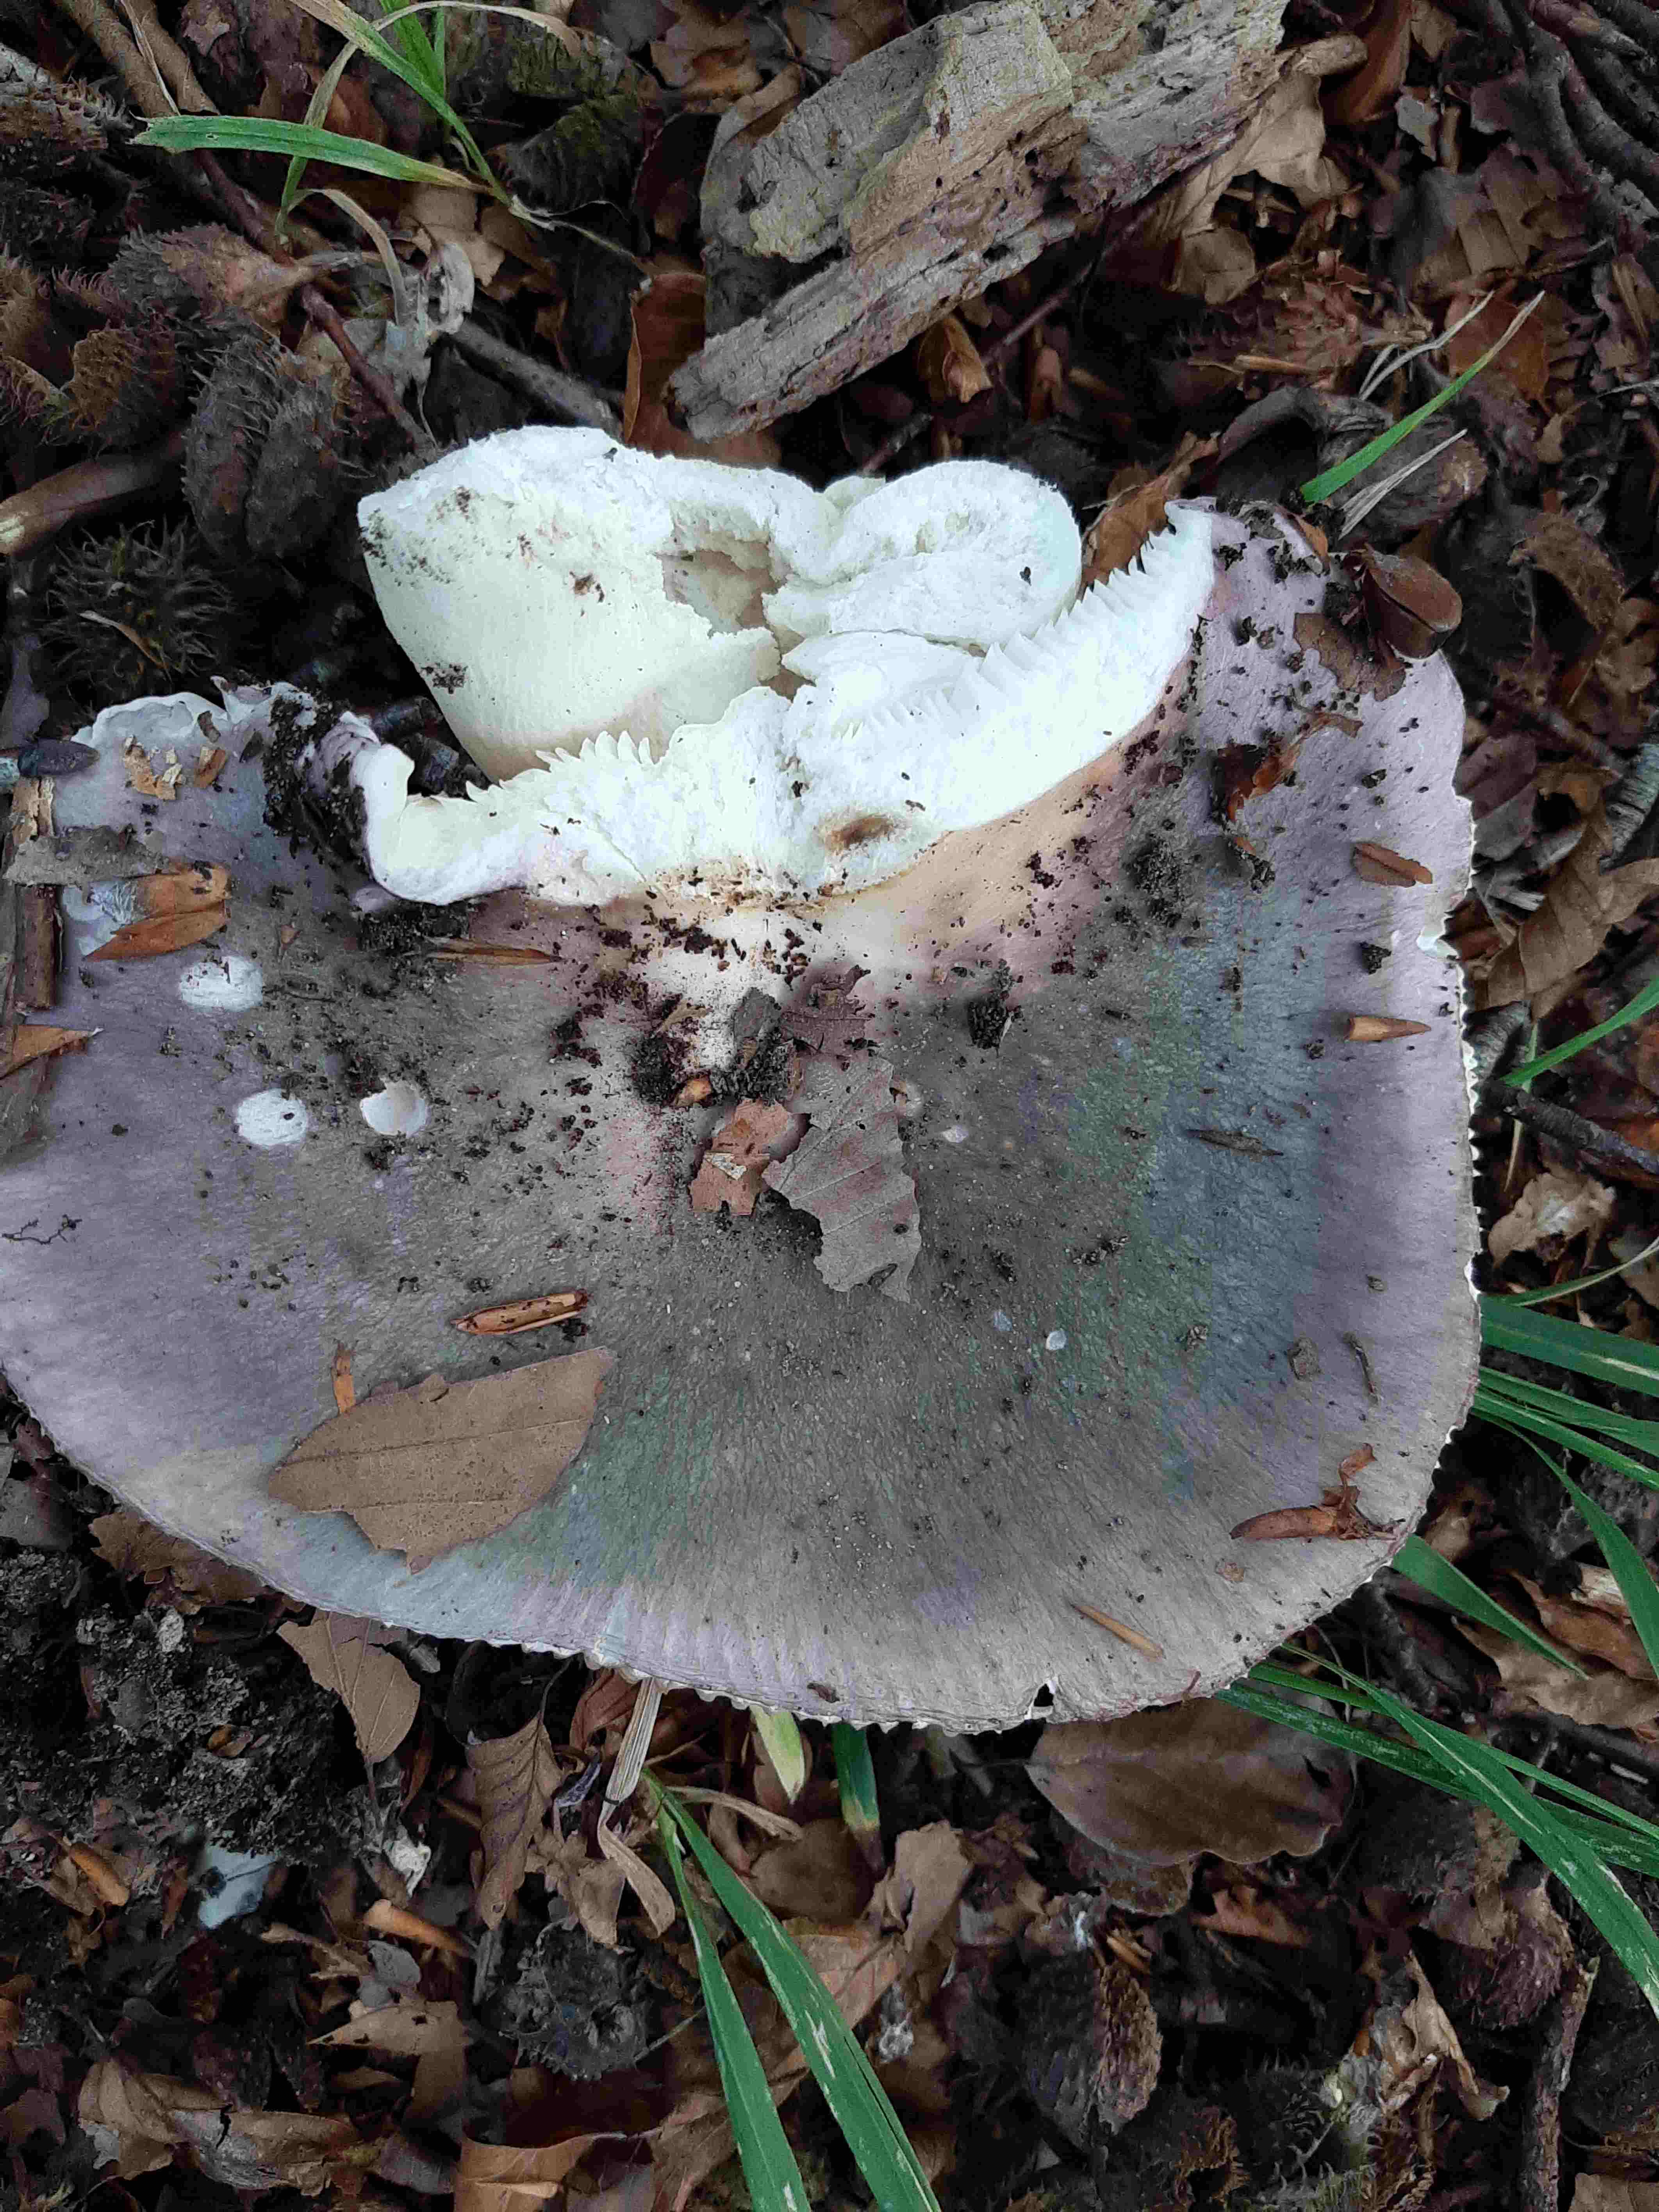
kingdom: Fungi
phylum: Basidiomycota
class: Agaricomycetes
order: Russulales
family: Russulaceae
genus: Russula
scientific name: Russula cyanoxantha
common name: broget skørhat
